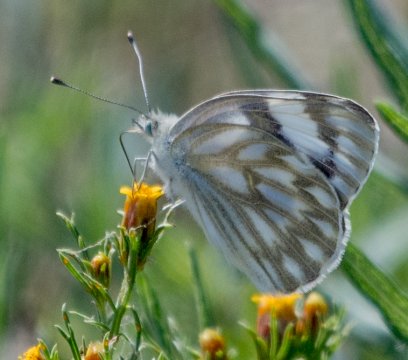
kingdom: Animalia
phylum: Arthropoda
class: Insecta
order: Lepidoptera
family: Pieridae
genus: Pontia
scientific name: Pontia protodice
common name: Checkered White
